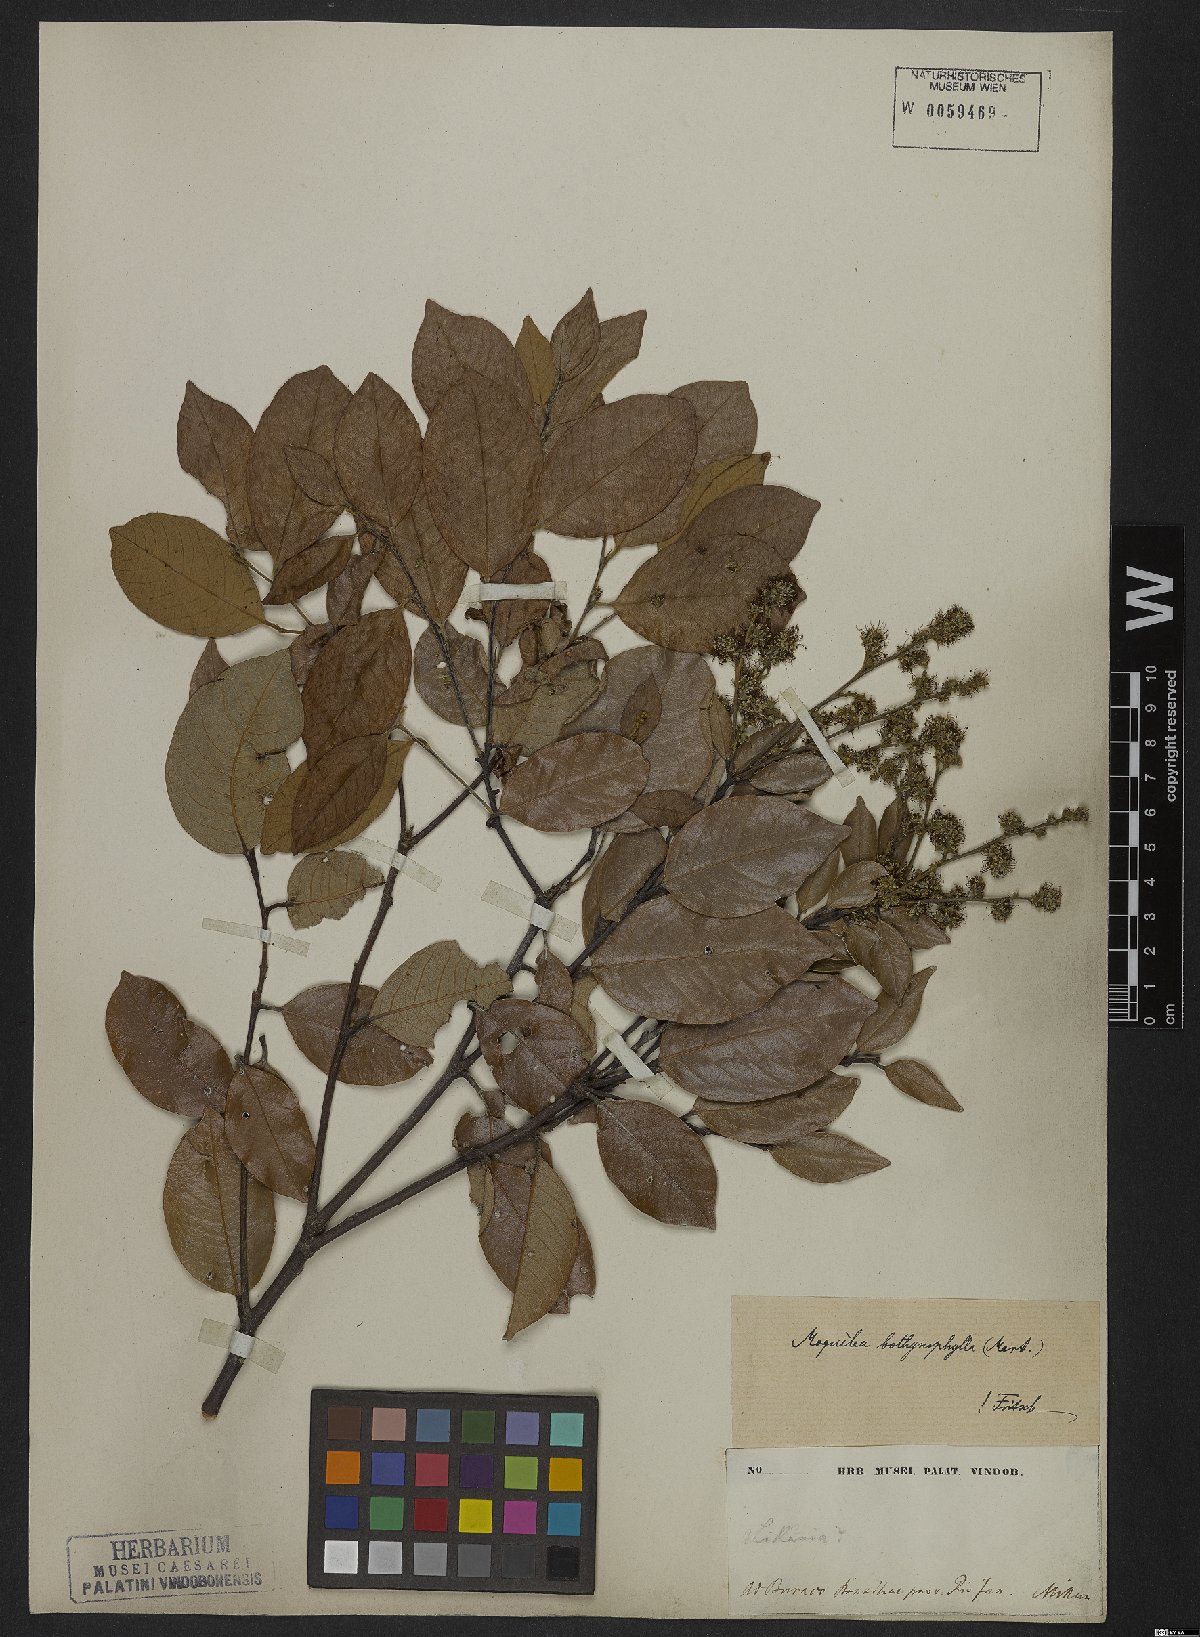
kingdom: Plantae
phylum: Tracheophyta
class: Magnoliopsida
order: Malpighiales
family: Chrysobalanaceae
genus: Leptobalanus
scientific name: Leptobalanus octandrus
